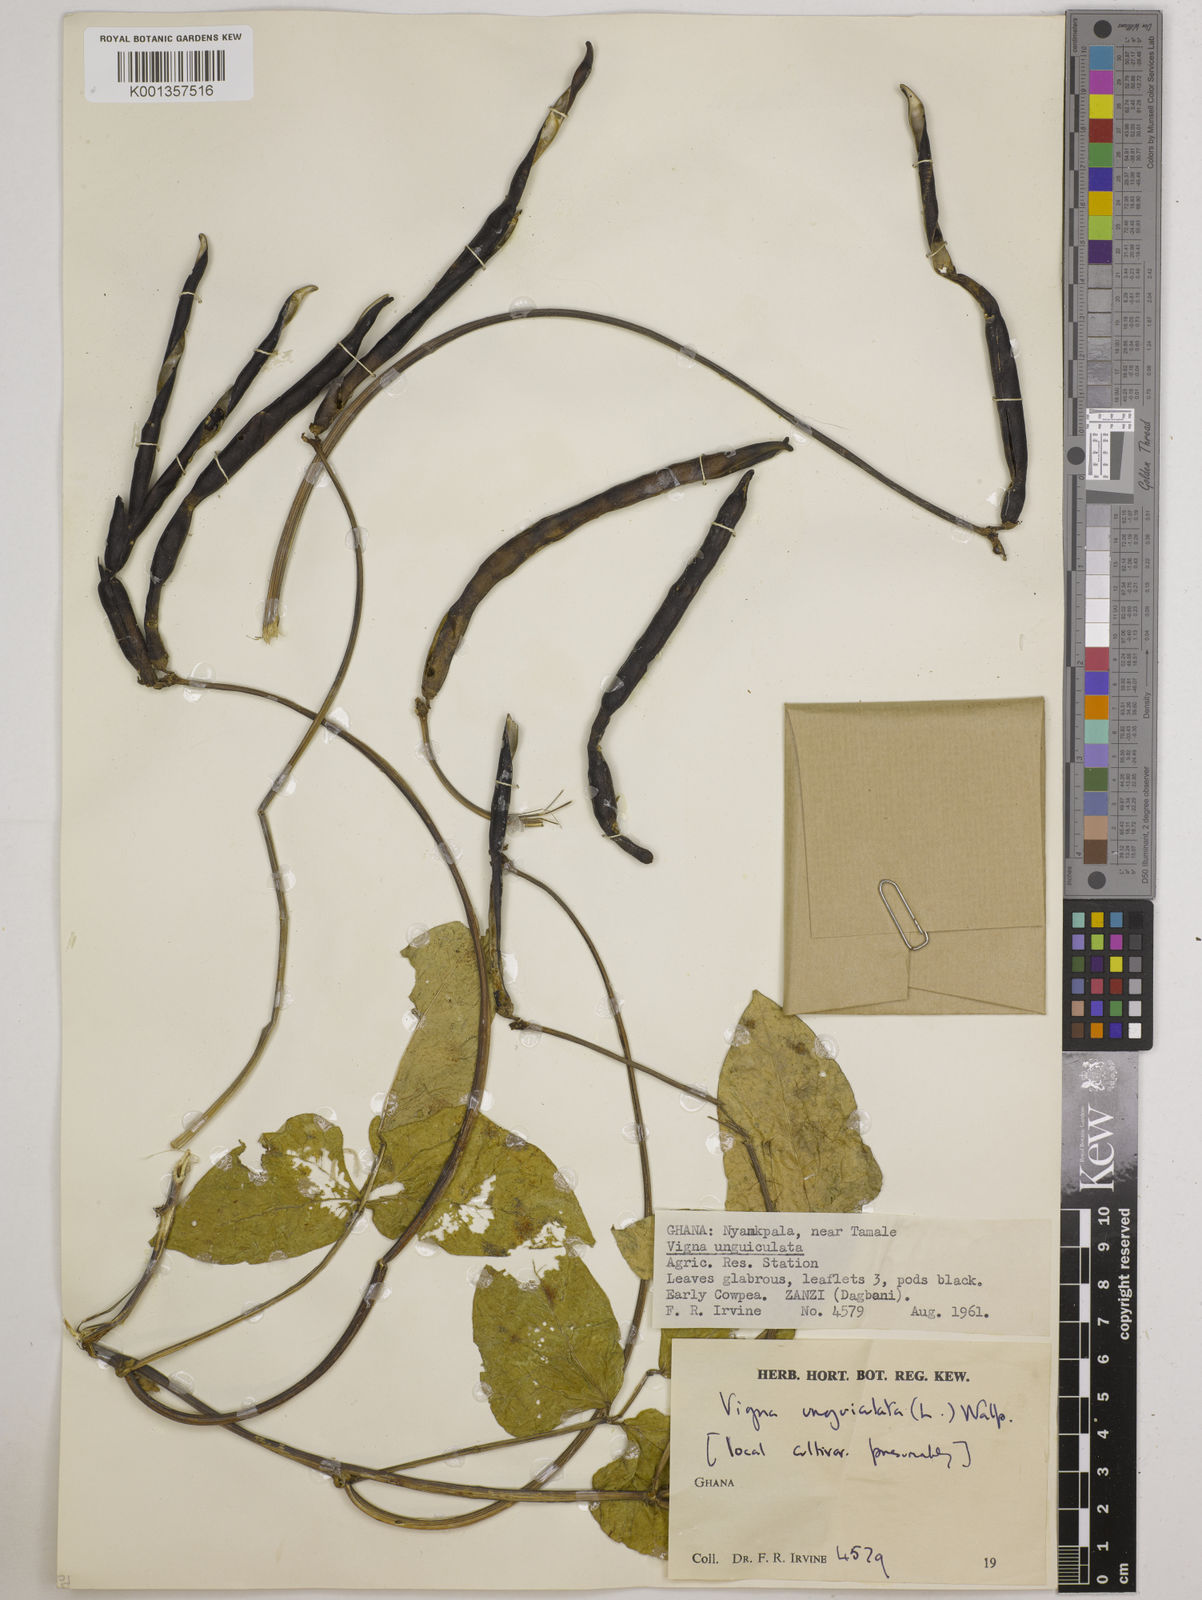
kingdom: Plantae
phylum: Tracheophyta
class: Magnoliopsida
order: Fabales
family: Fabaceae
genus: Vigna
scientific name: Vigna
